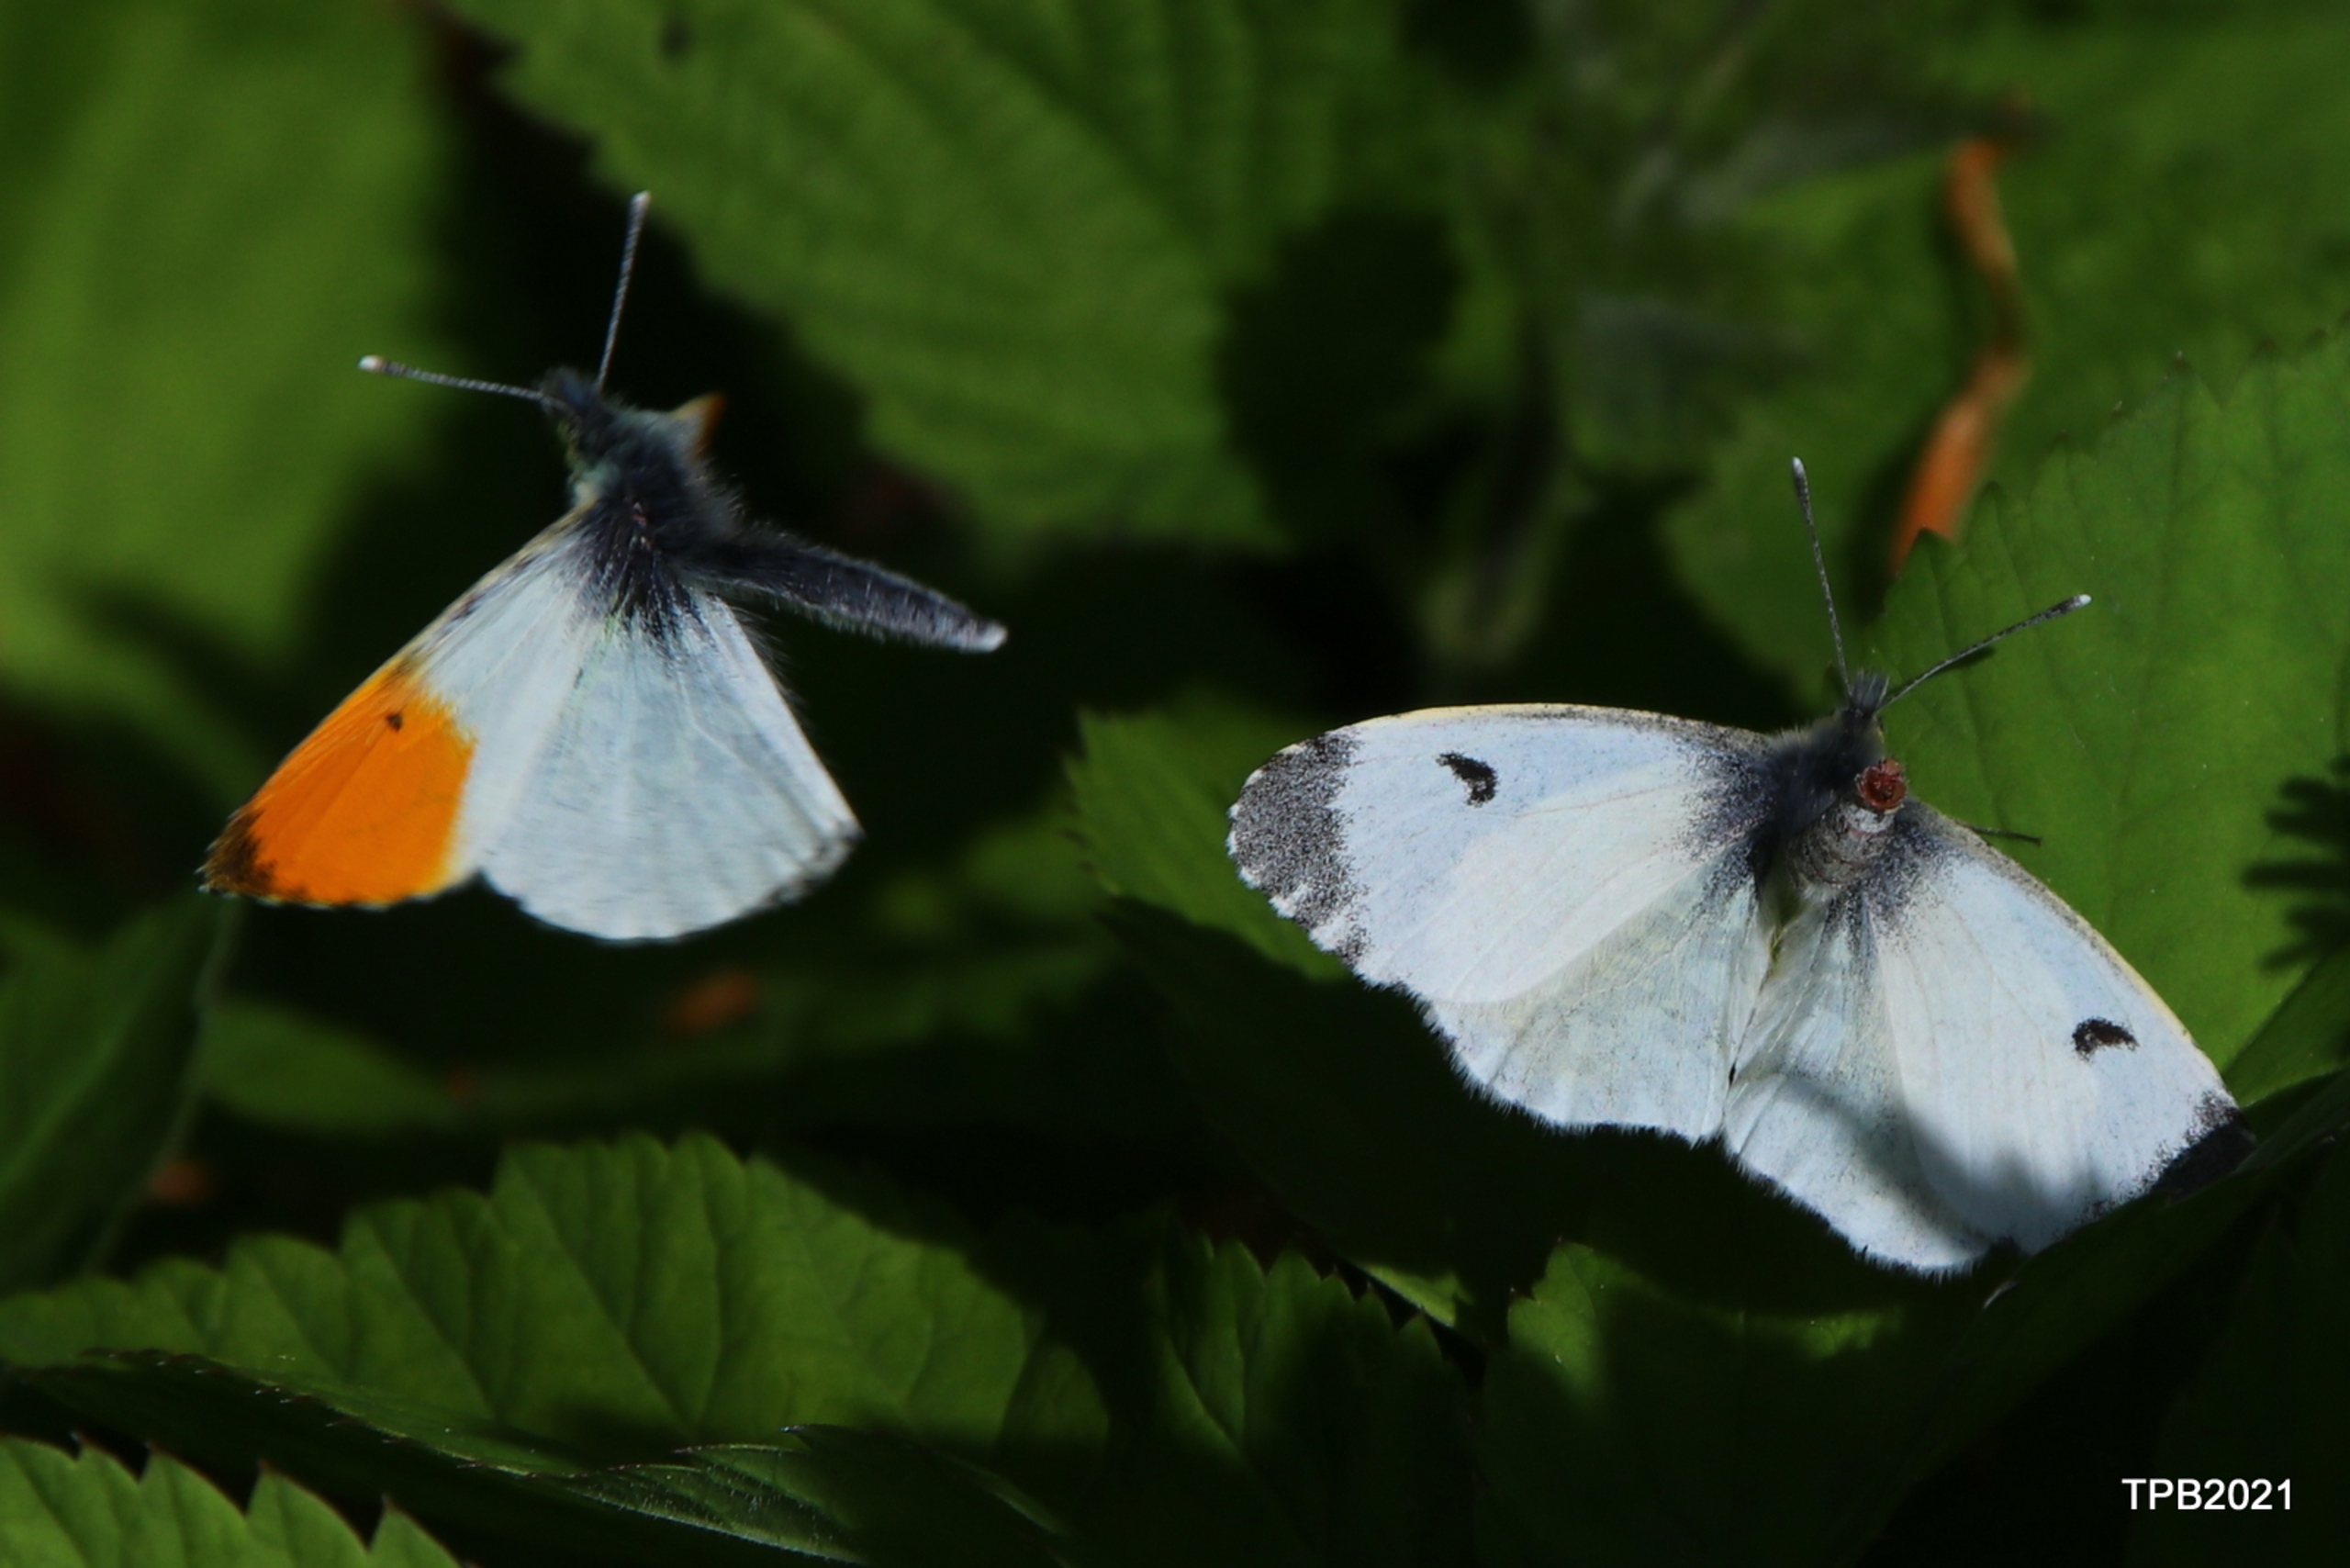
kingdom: Animalia
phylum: Arthropoda
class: Insecta
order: Lepidoptera
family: Pieridae
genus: Anthocharis
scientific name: Anthocharis cardamines
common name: Aurora
